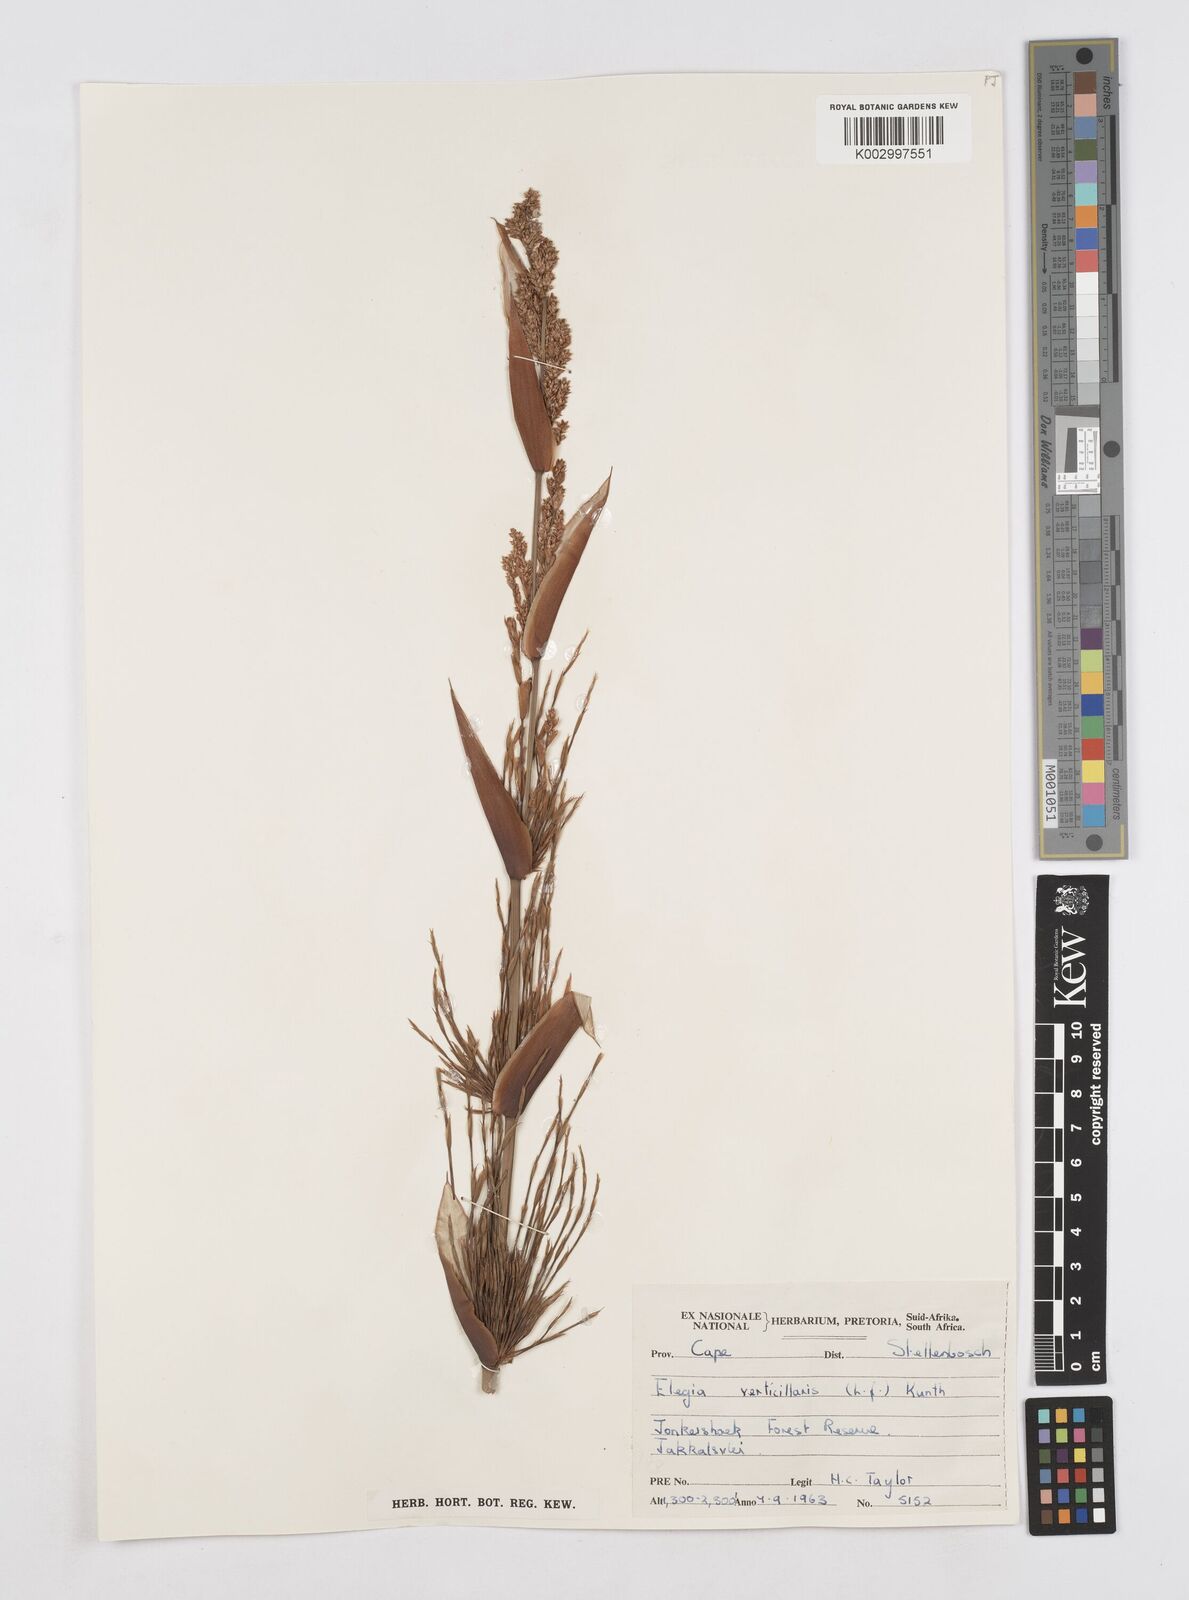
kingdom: Plantae
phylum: Tracheophyta
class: Liliopsida
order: Poales
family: Restionaceae
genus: Elegia
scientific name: Elegia capensis
